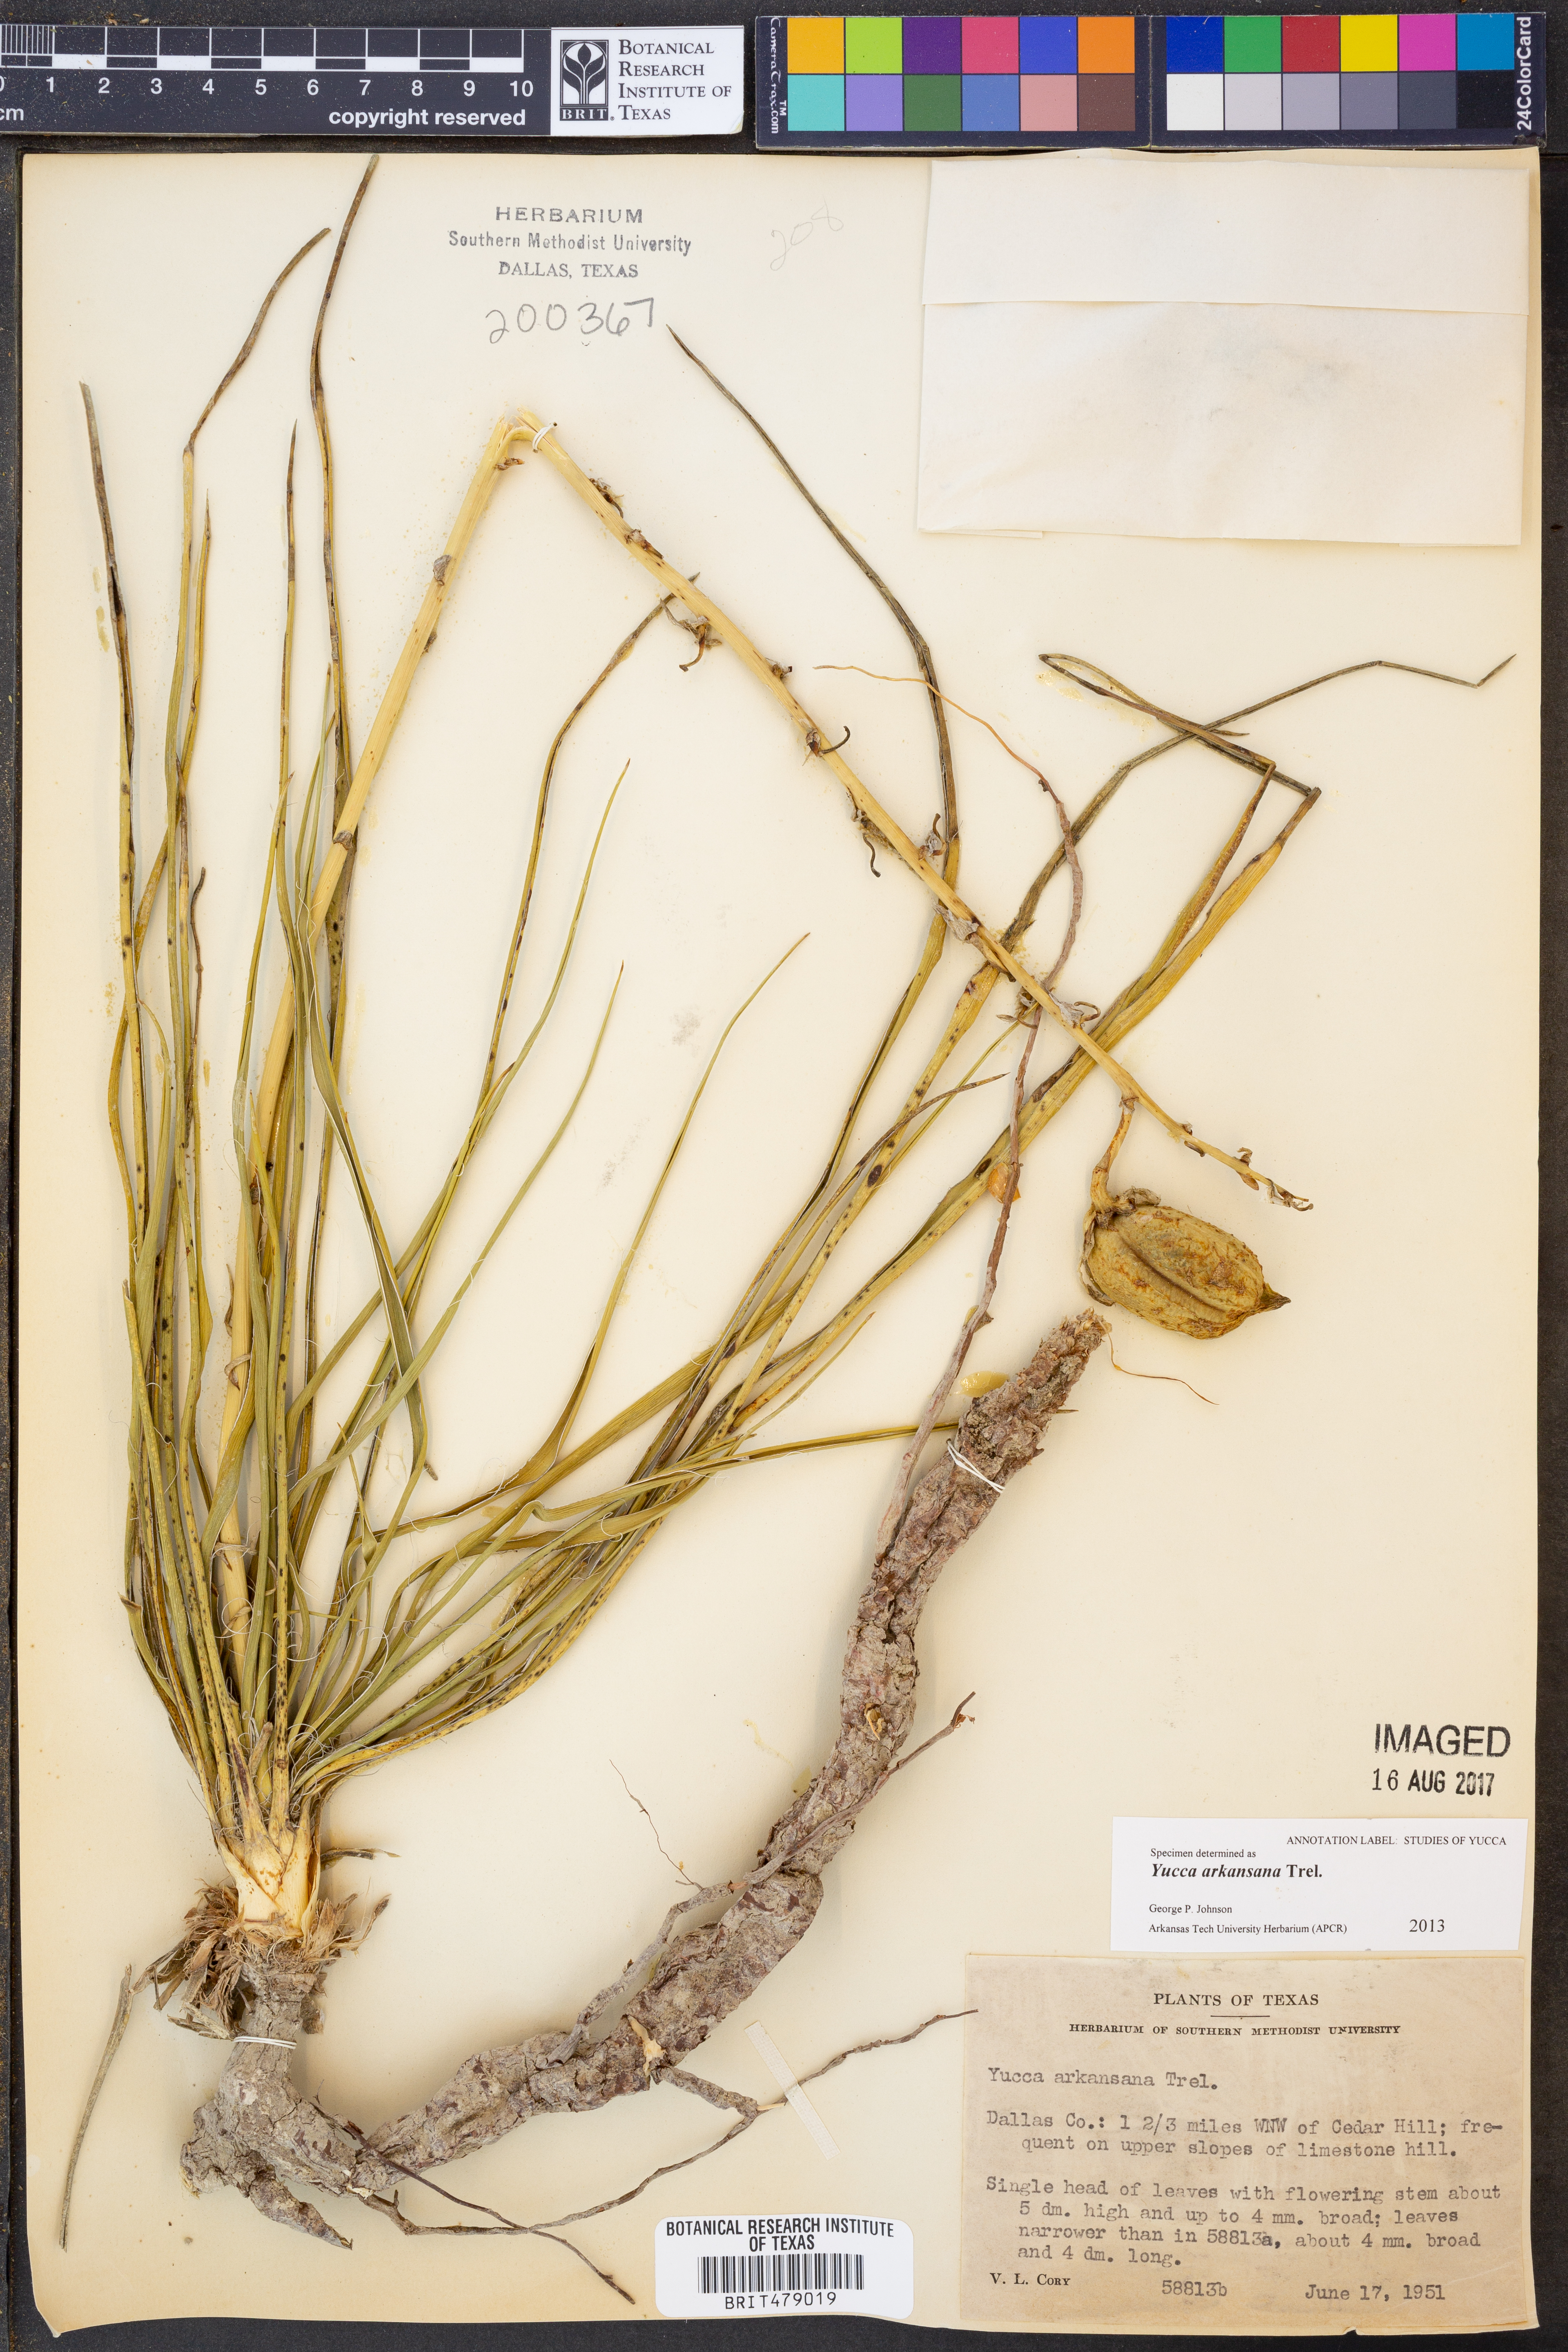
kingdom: Plantae
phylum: Tracheophyta
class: Liliopsida
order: Asparagales
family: Asparagaceae
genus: Yucca
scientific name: Yucca arkansana
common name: Arkansas yucca
